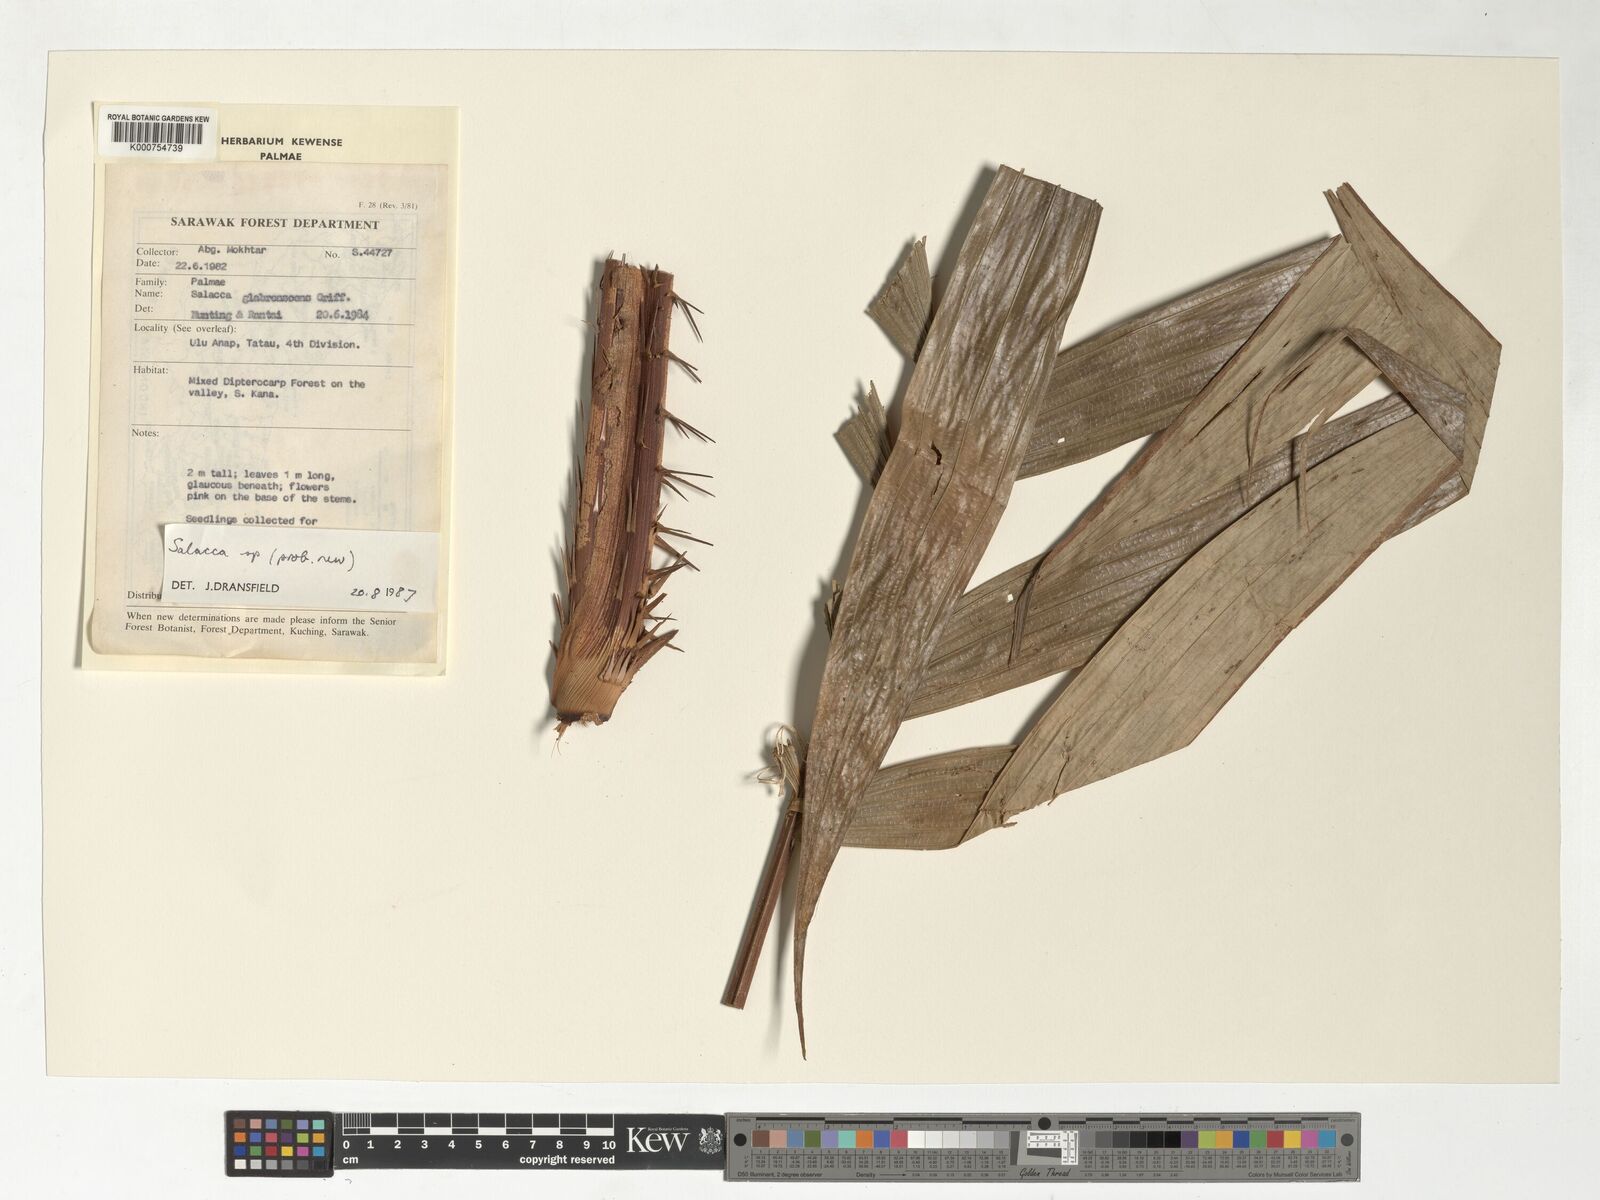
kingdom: Plantae
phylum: Tracheophyta
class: Liliopsida
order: Arecales
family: Arecaceae
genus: Salacca
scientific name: Salacca
